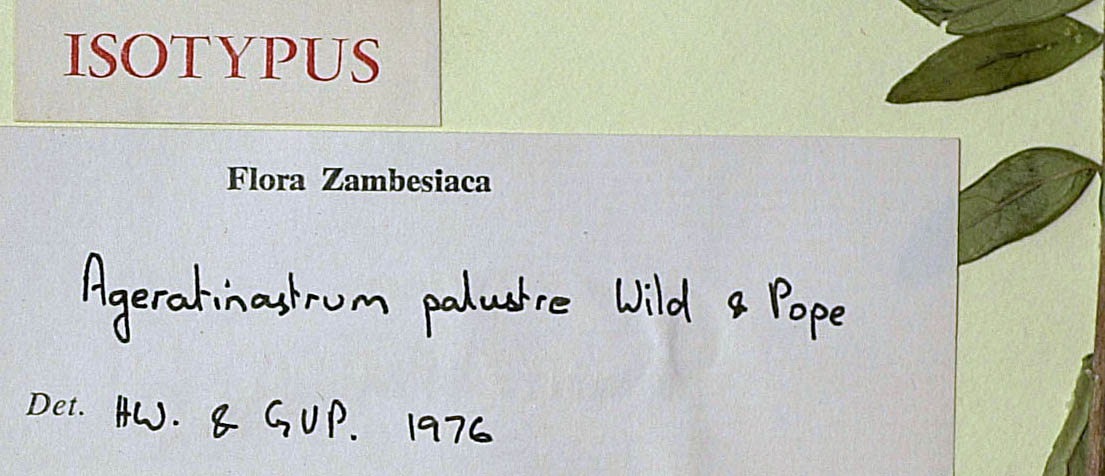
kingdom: Plantae
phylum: Tracheophyta
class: Magnoliopsida
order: Asterales
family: Asteraceae
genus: Ageratinastrum
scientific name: Ageratinastrum palustre
